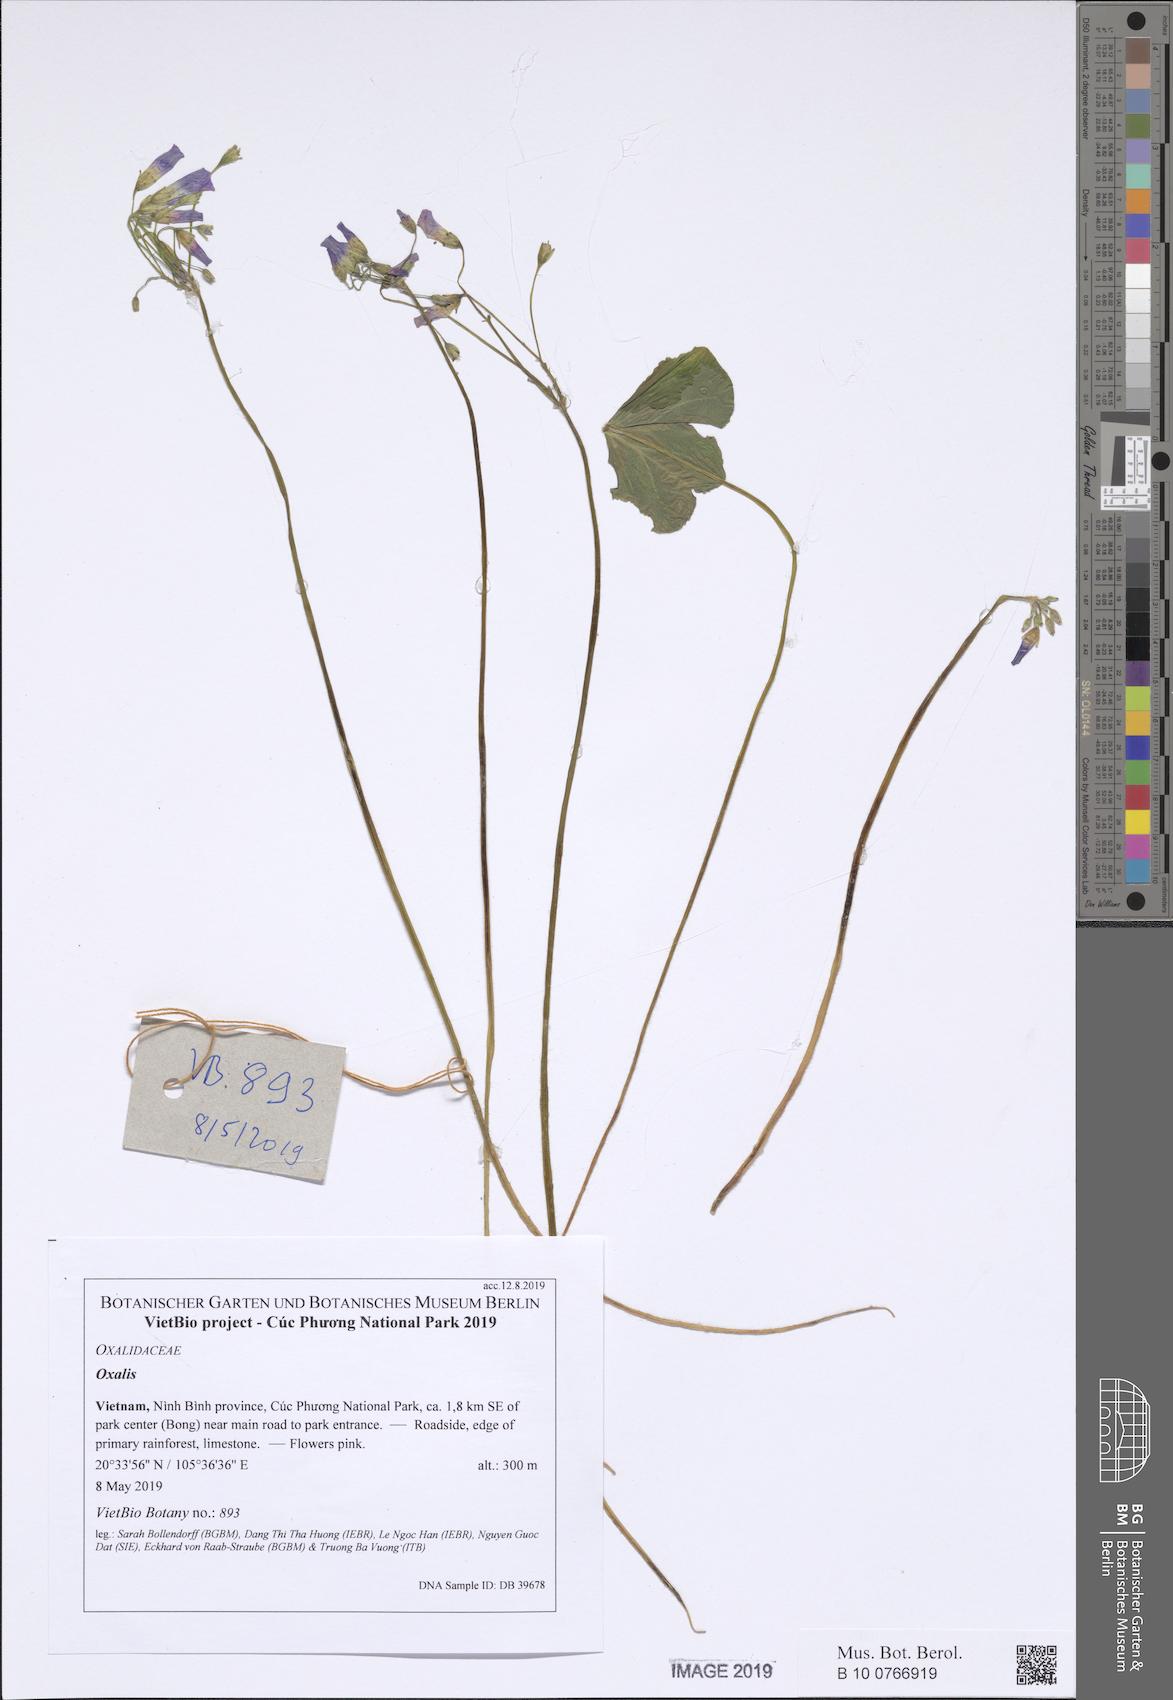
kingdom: Plantae
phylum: Tracheophyta
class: Magnoliopsida
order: Oxalidales
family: Oxalidaceae
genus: Oxalis
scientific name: Oxalis debilis
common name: Large-flowered pink-sorrel
